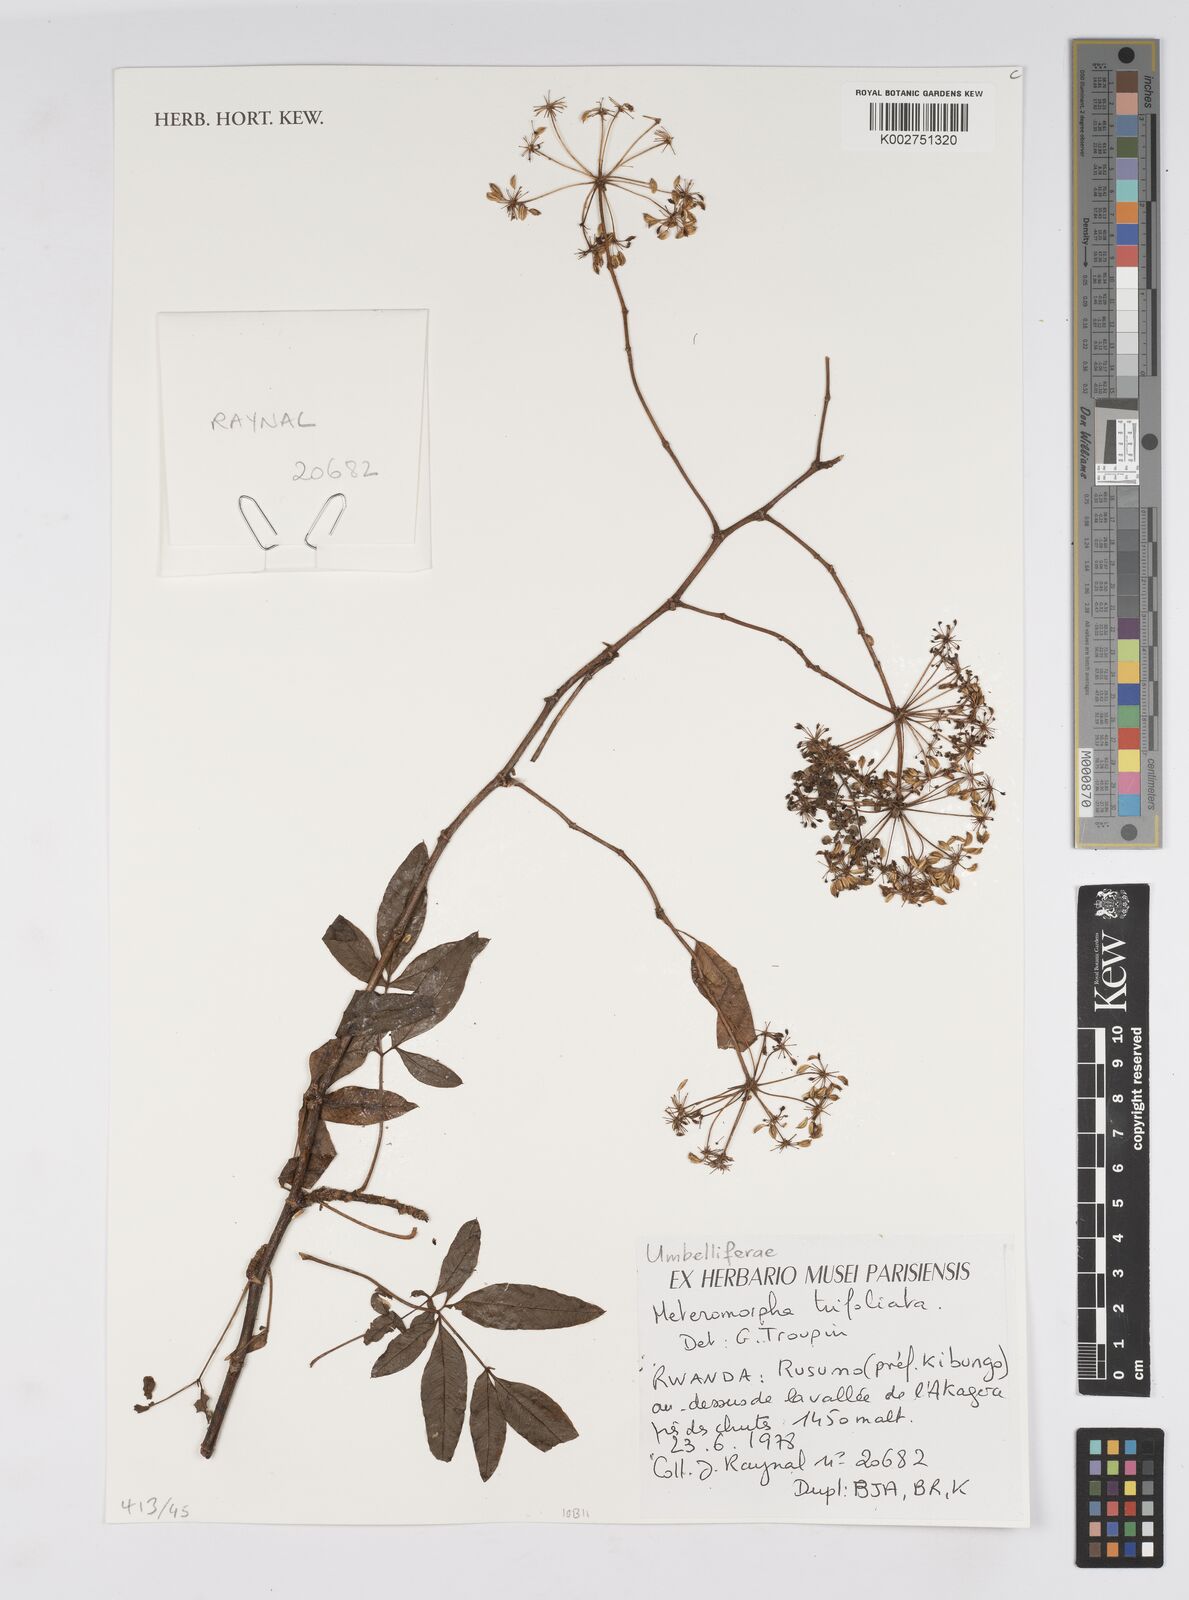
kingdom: Plantae
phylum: Tracheophyta
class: Magnoliopsida
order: Apiales
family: Apiaceae
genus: Heteromorpha
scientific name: Heteromorpha arborescens
